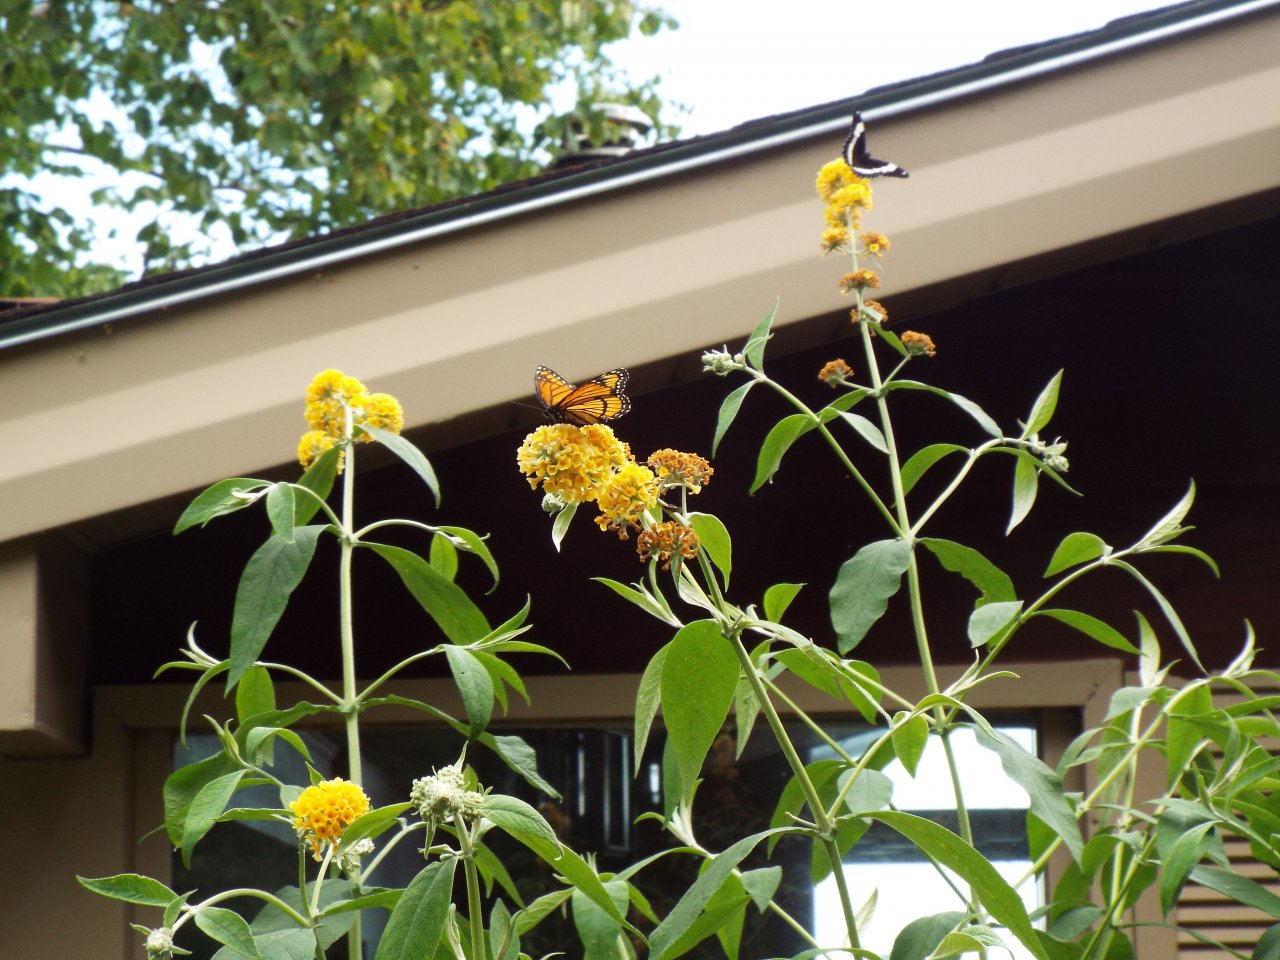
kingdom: Animalia
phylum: Arthropoda
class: Insecta
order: Lepidoptera
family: Nymphalidae
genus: Limenitis
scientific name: Limenitis archippus
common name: Viceroy
